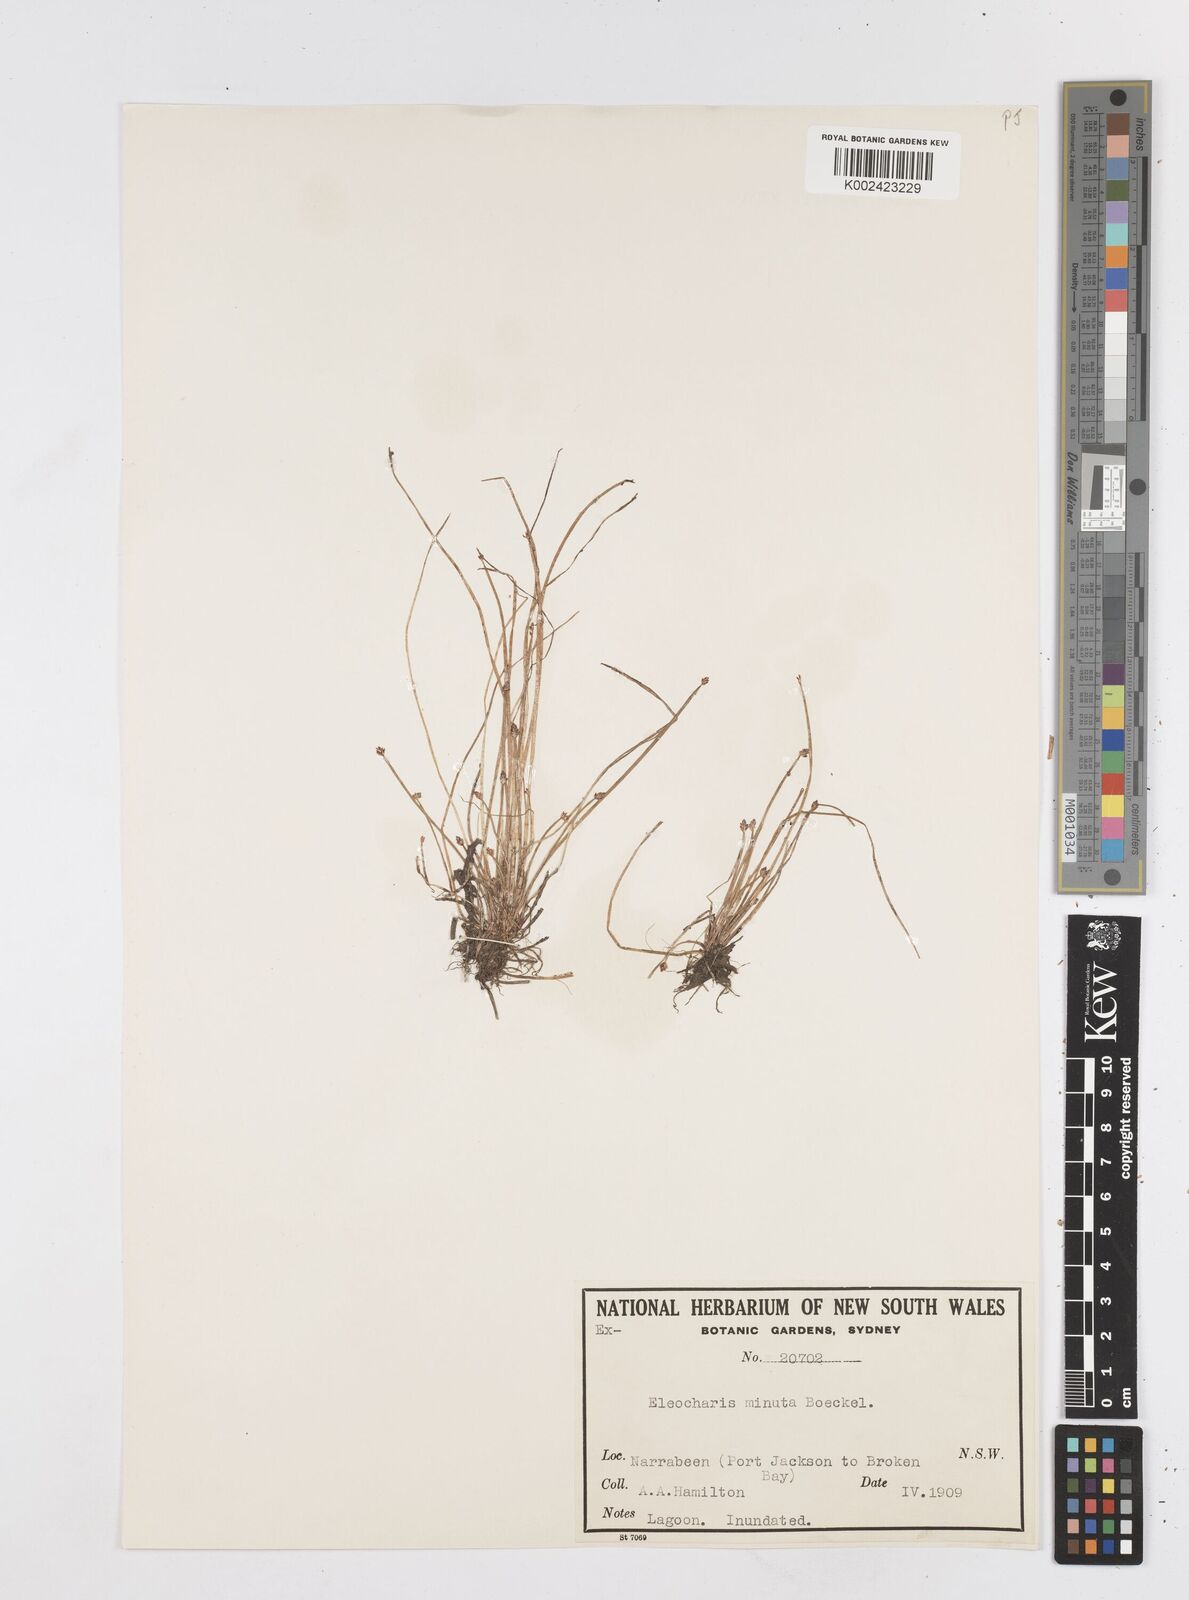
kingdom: Plantae
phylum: Tracheophyta
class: Liliopsida
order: Poales
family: Cyperaceae
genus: Eleocharis
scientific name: Eleocharis minuta
